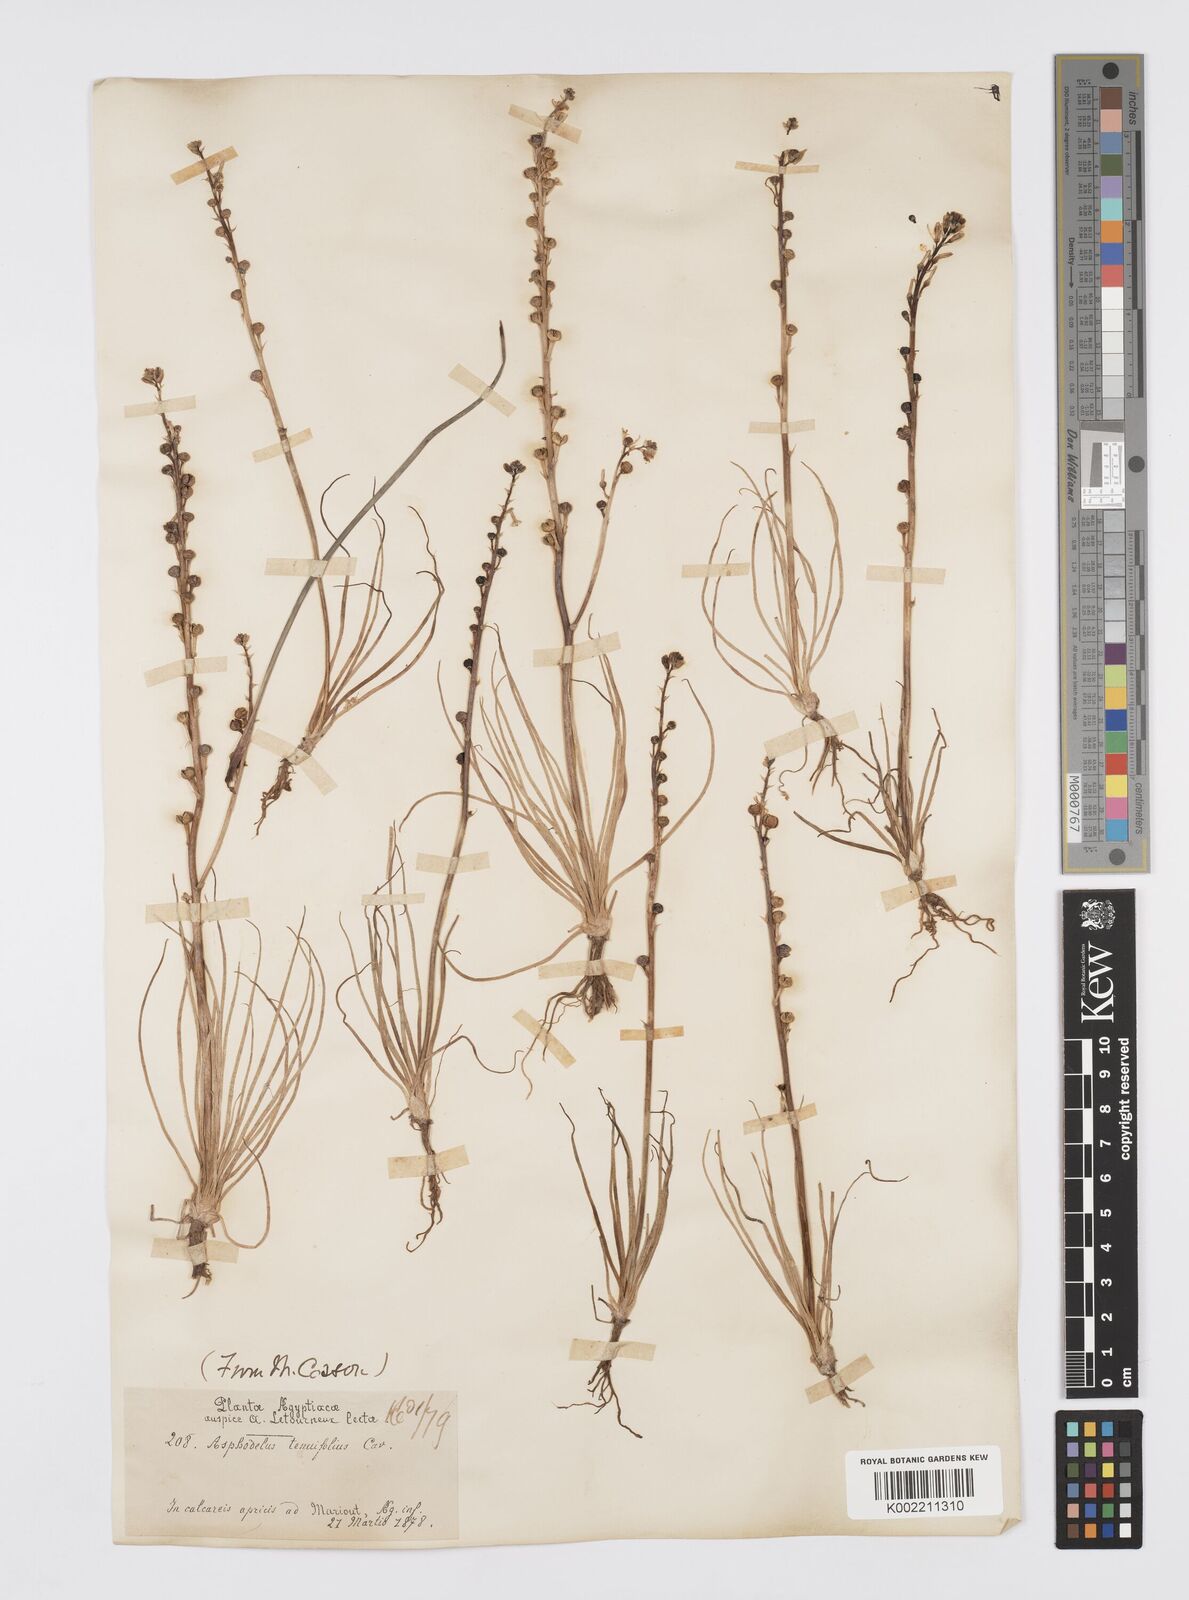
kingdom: Plantae
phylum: Tracheophyta
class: Liliopsida
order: Asparagales
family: Asphodelaceae
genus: Asphodeline
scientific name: Asphodeline tenuior
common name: Thin asphodeline
